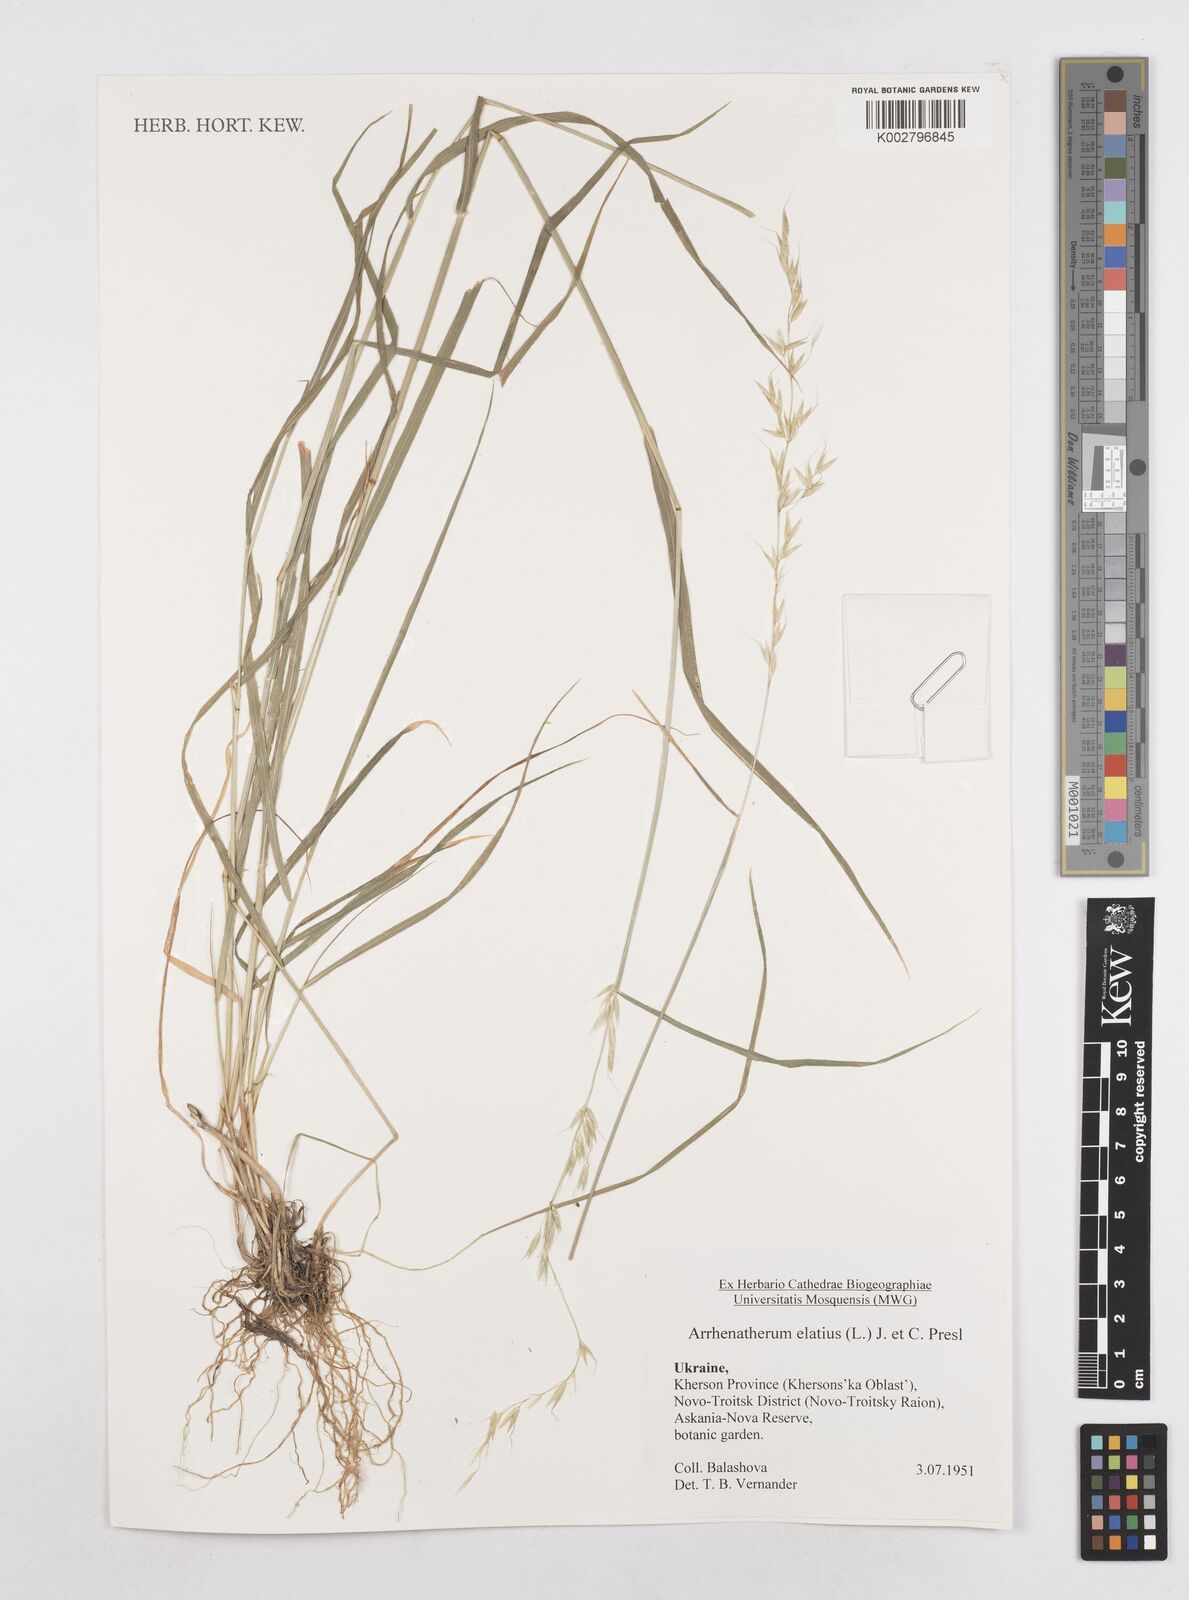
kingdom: Plantae
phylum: Tracheophyta
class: Liliopsida
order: Poales
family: Poaceae
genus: Arrhenatherum
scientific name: Arrhenatherum elatius
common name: Tall oatgrass
